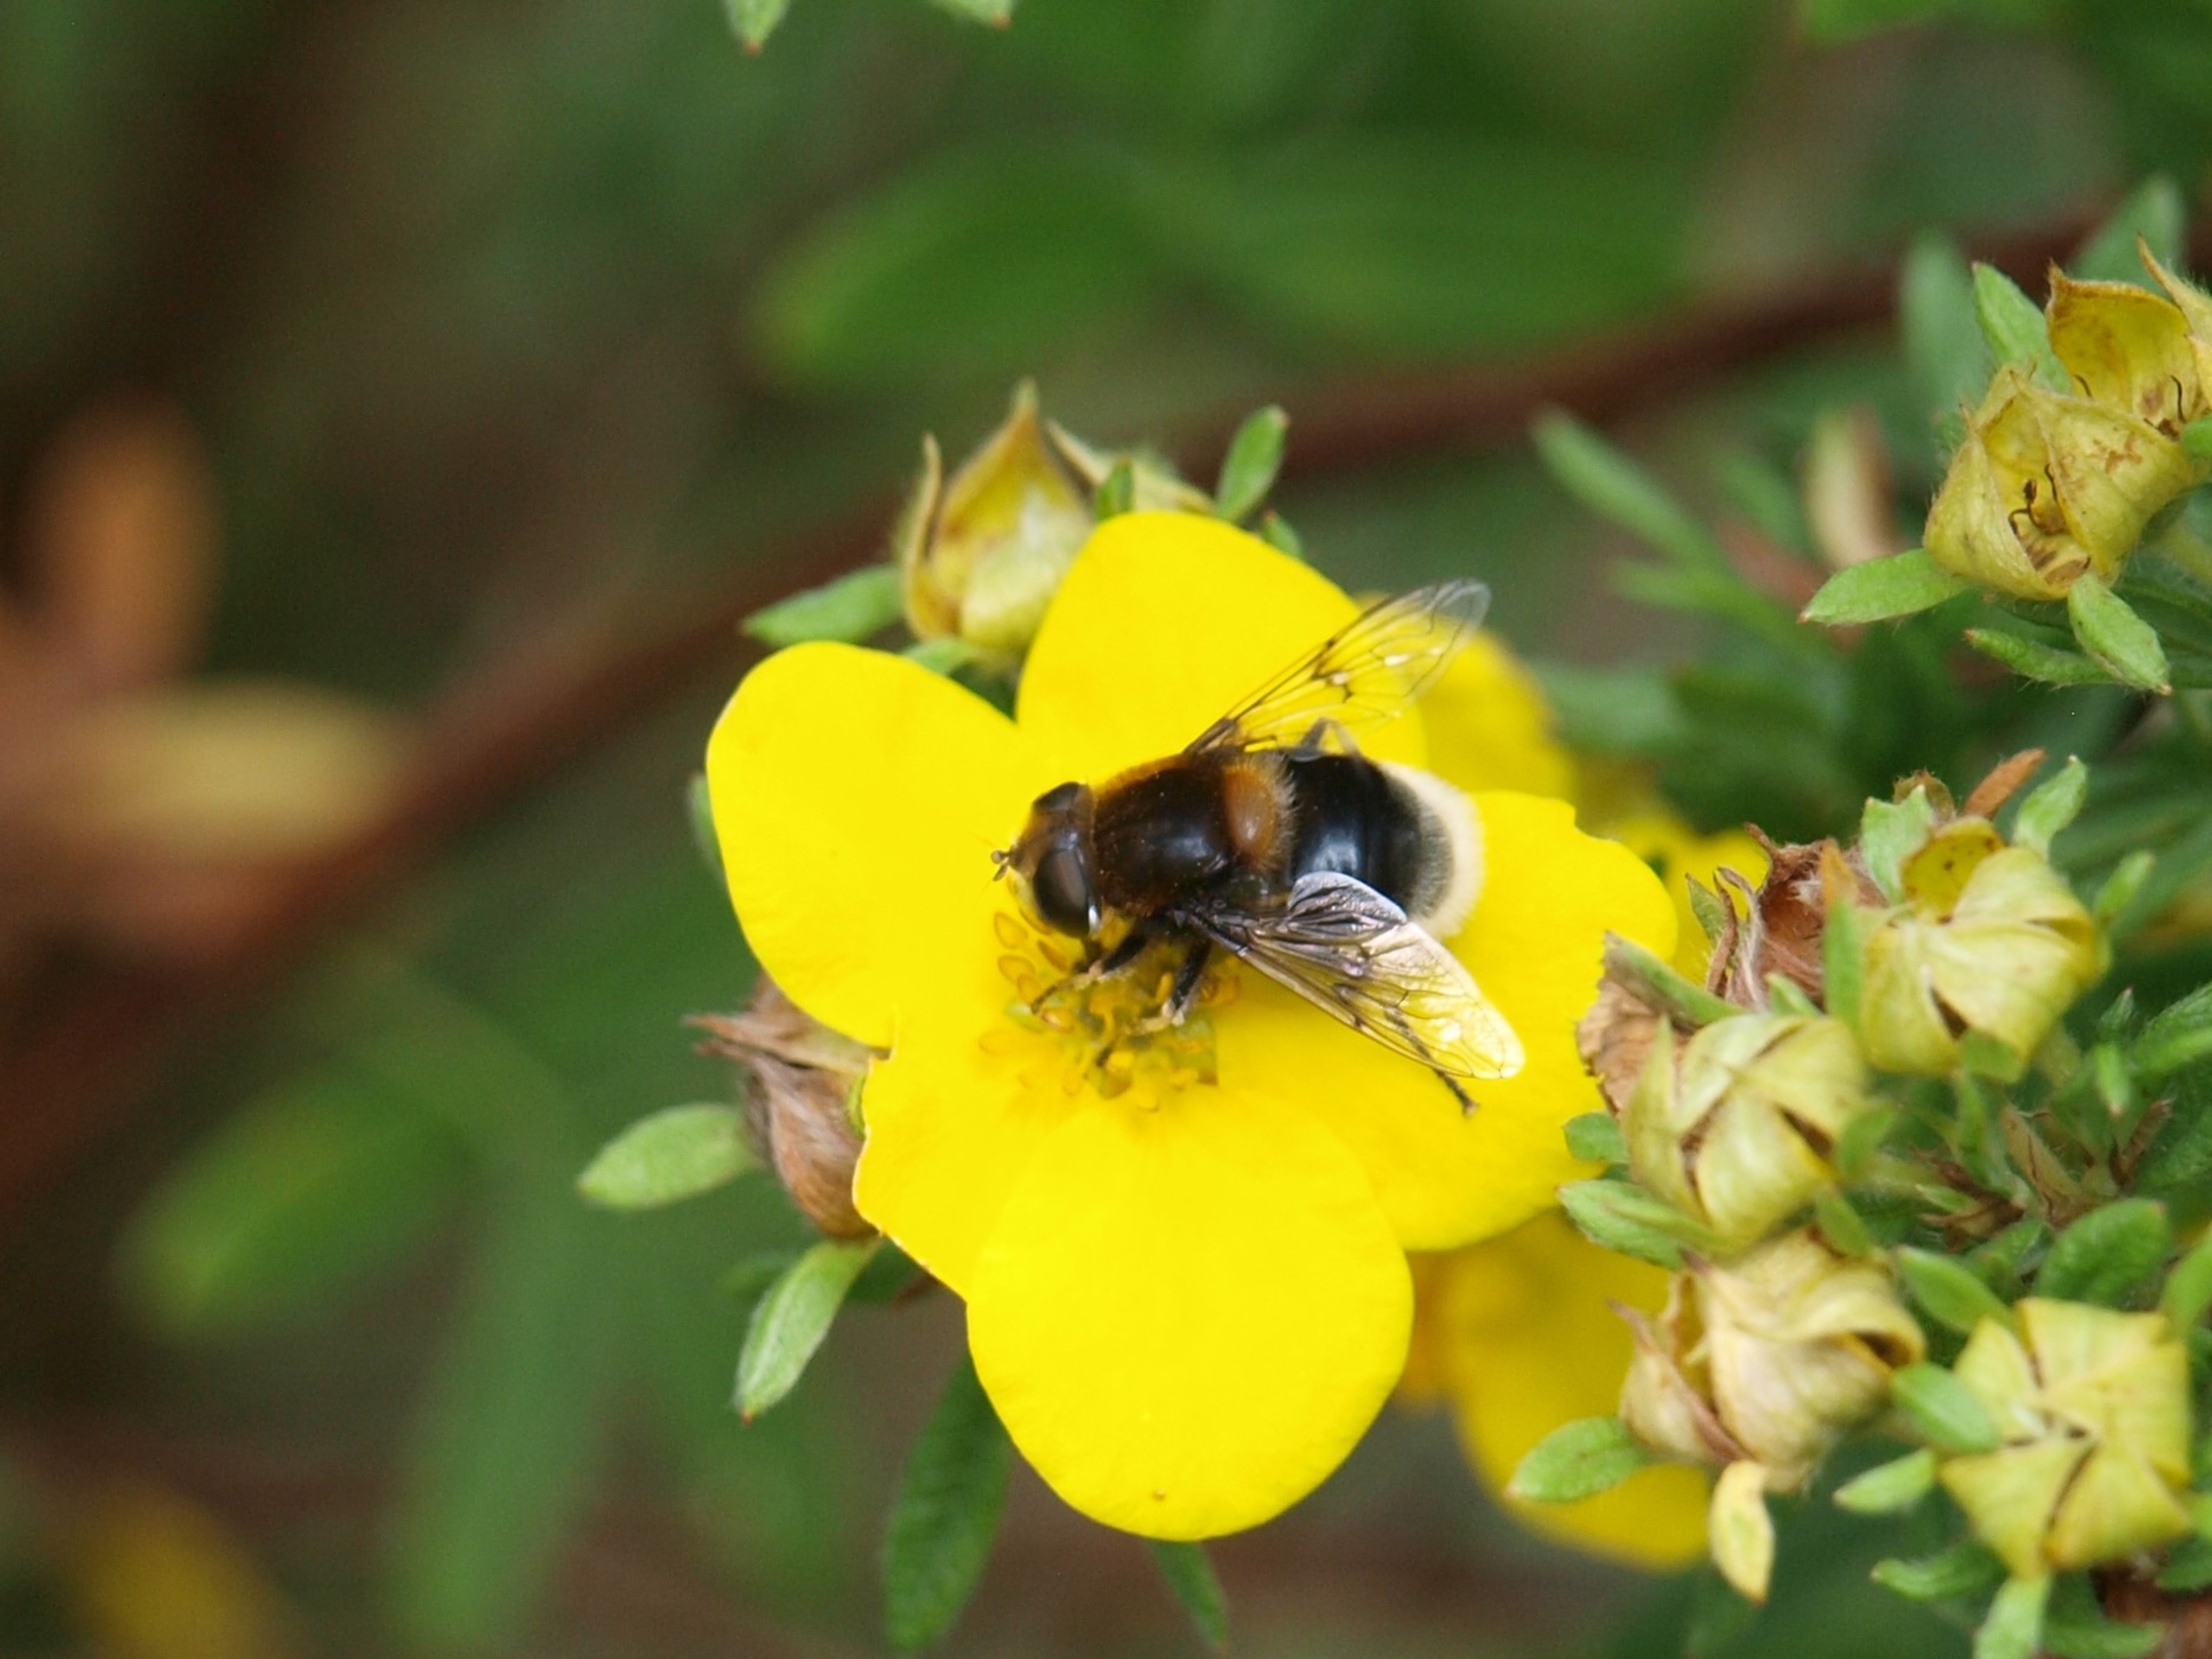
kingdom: Animalia
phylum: Arthropoda
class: Insecta
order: Diptera
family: Syrphidae
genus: Eristalis
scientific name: Eristalis intricaria
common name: Håret dyndflue
